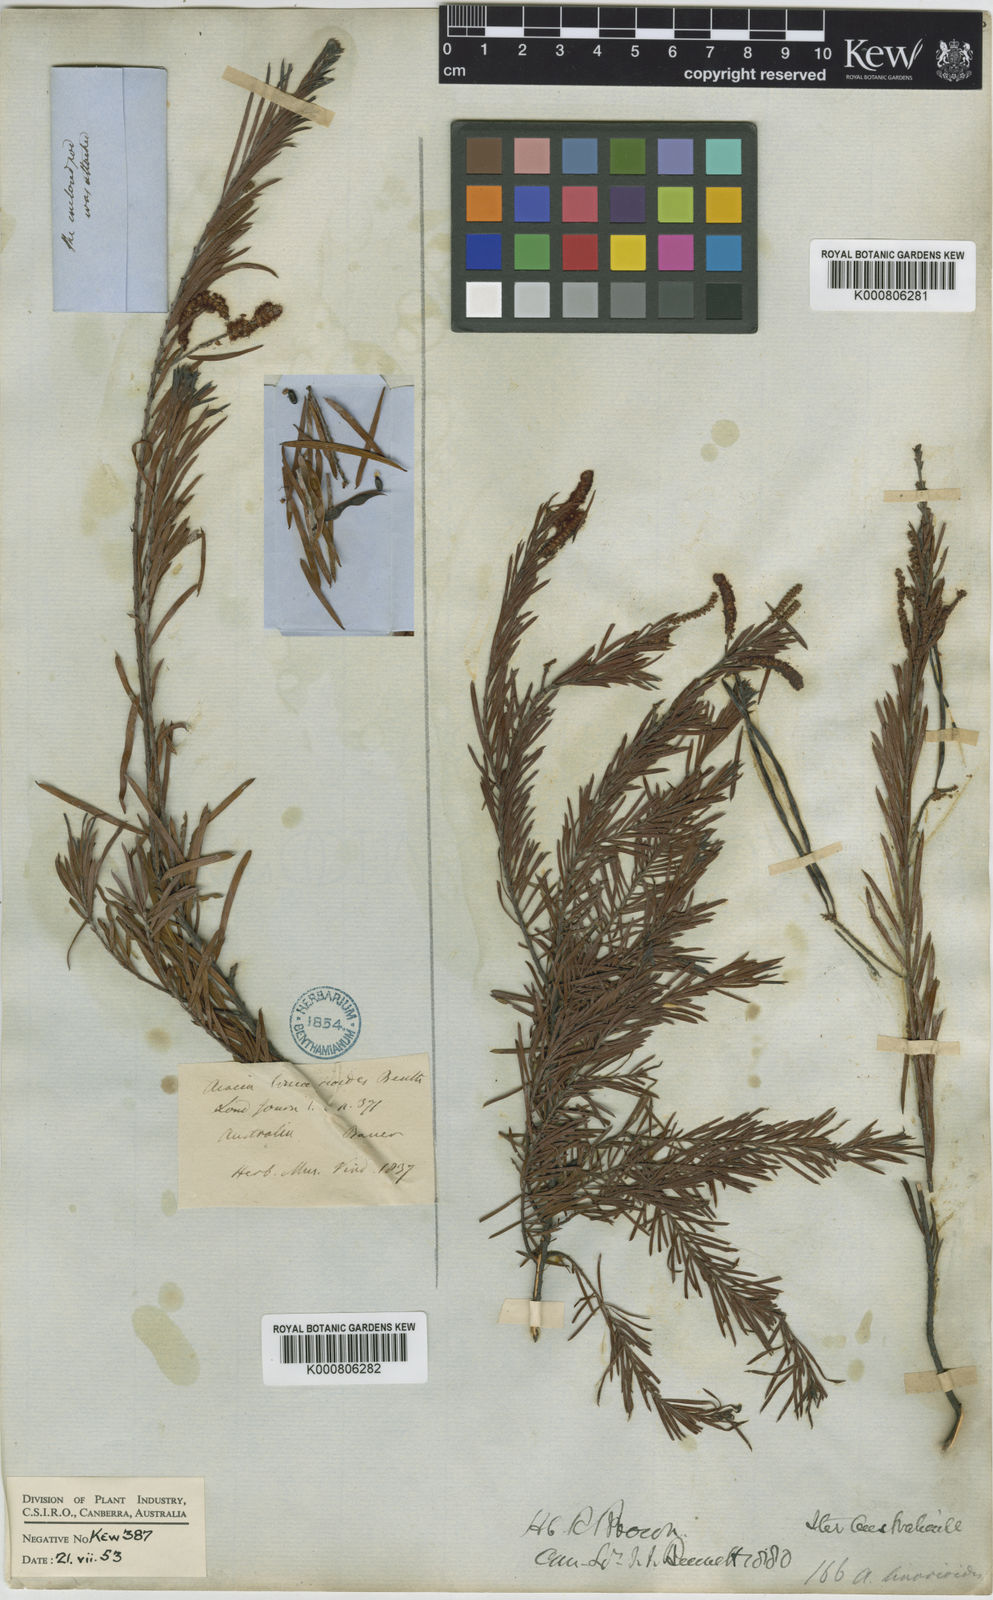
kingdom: Plantae
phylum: Tracheophyta
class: Magnoliopsida
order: Fabales
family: Fabaceae
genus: Acacia
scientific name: Acacia linarioides
